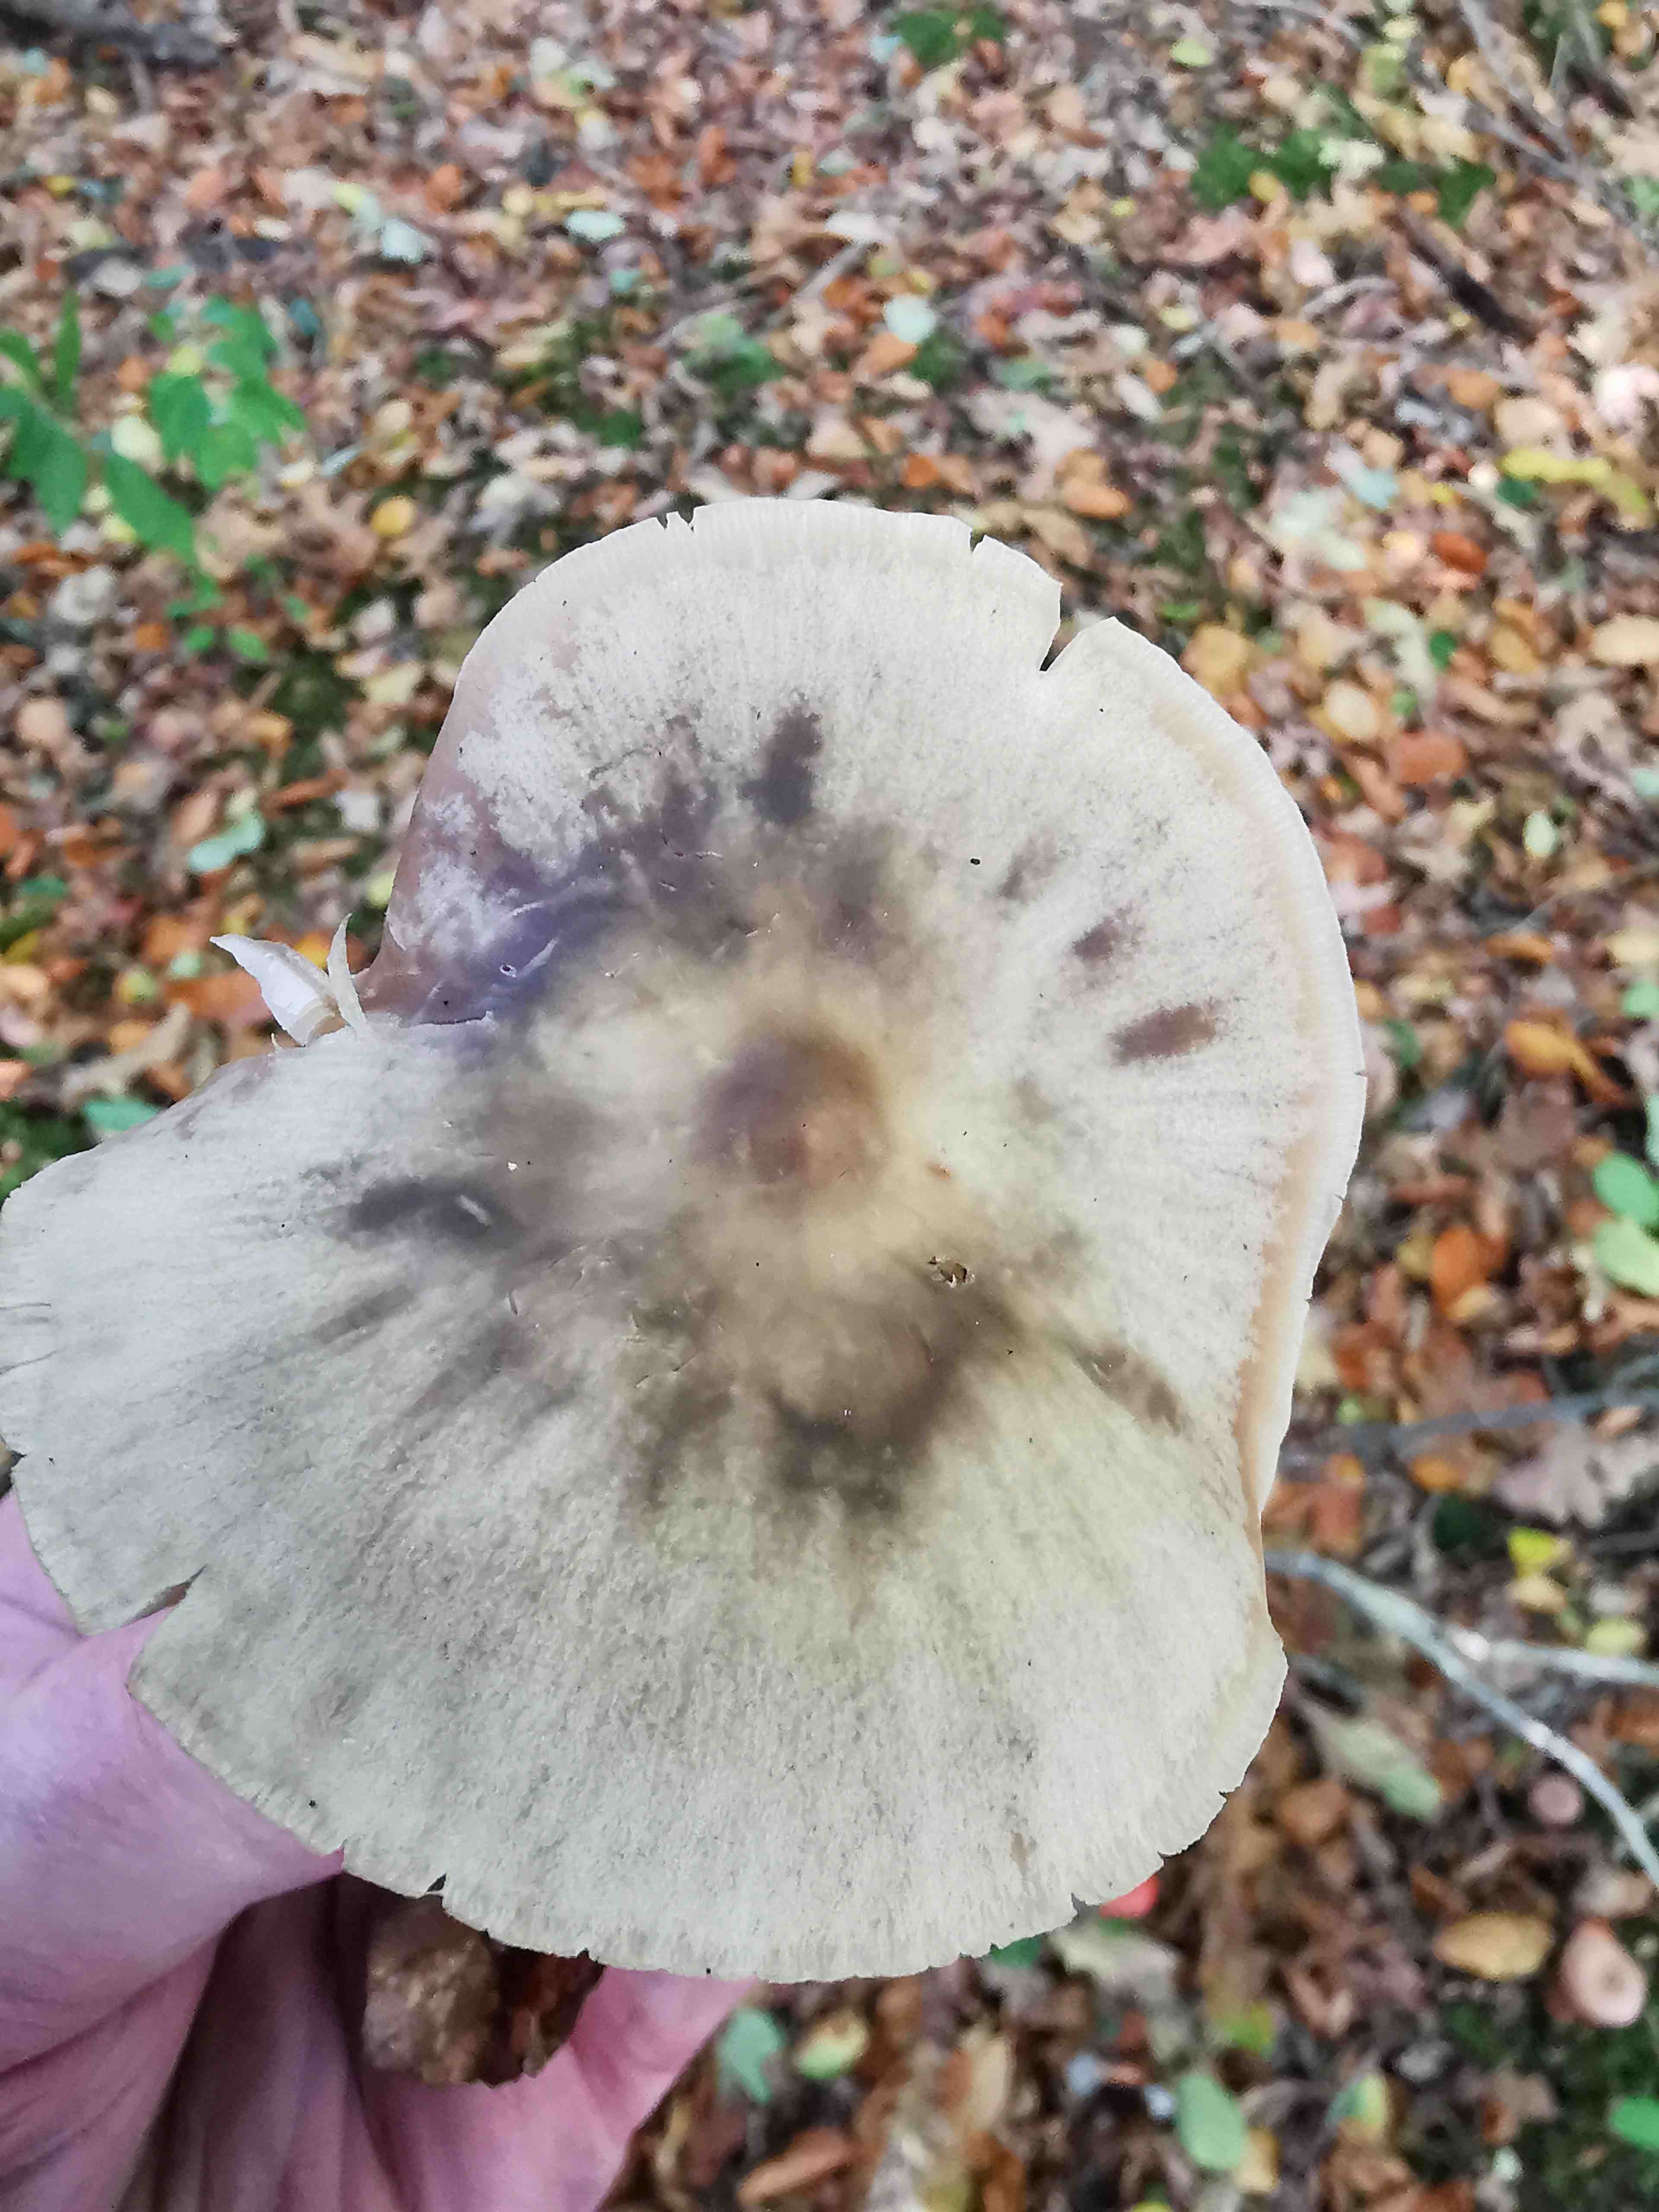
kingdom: Fungi
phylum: Basidiomycota
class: Agaricomycetes
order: Agaricales
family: Omphalotaceae
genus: Rhodocollybia
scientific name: Rhodocollybia asema
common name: horngrå fladhat
